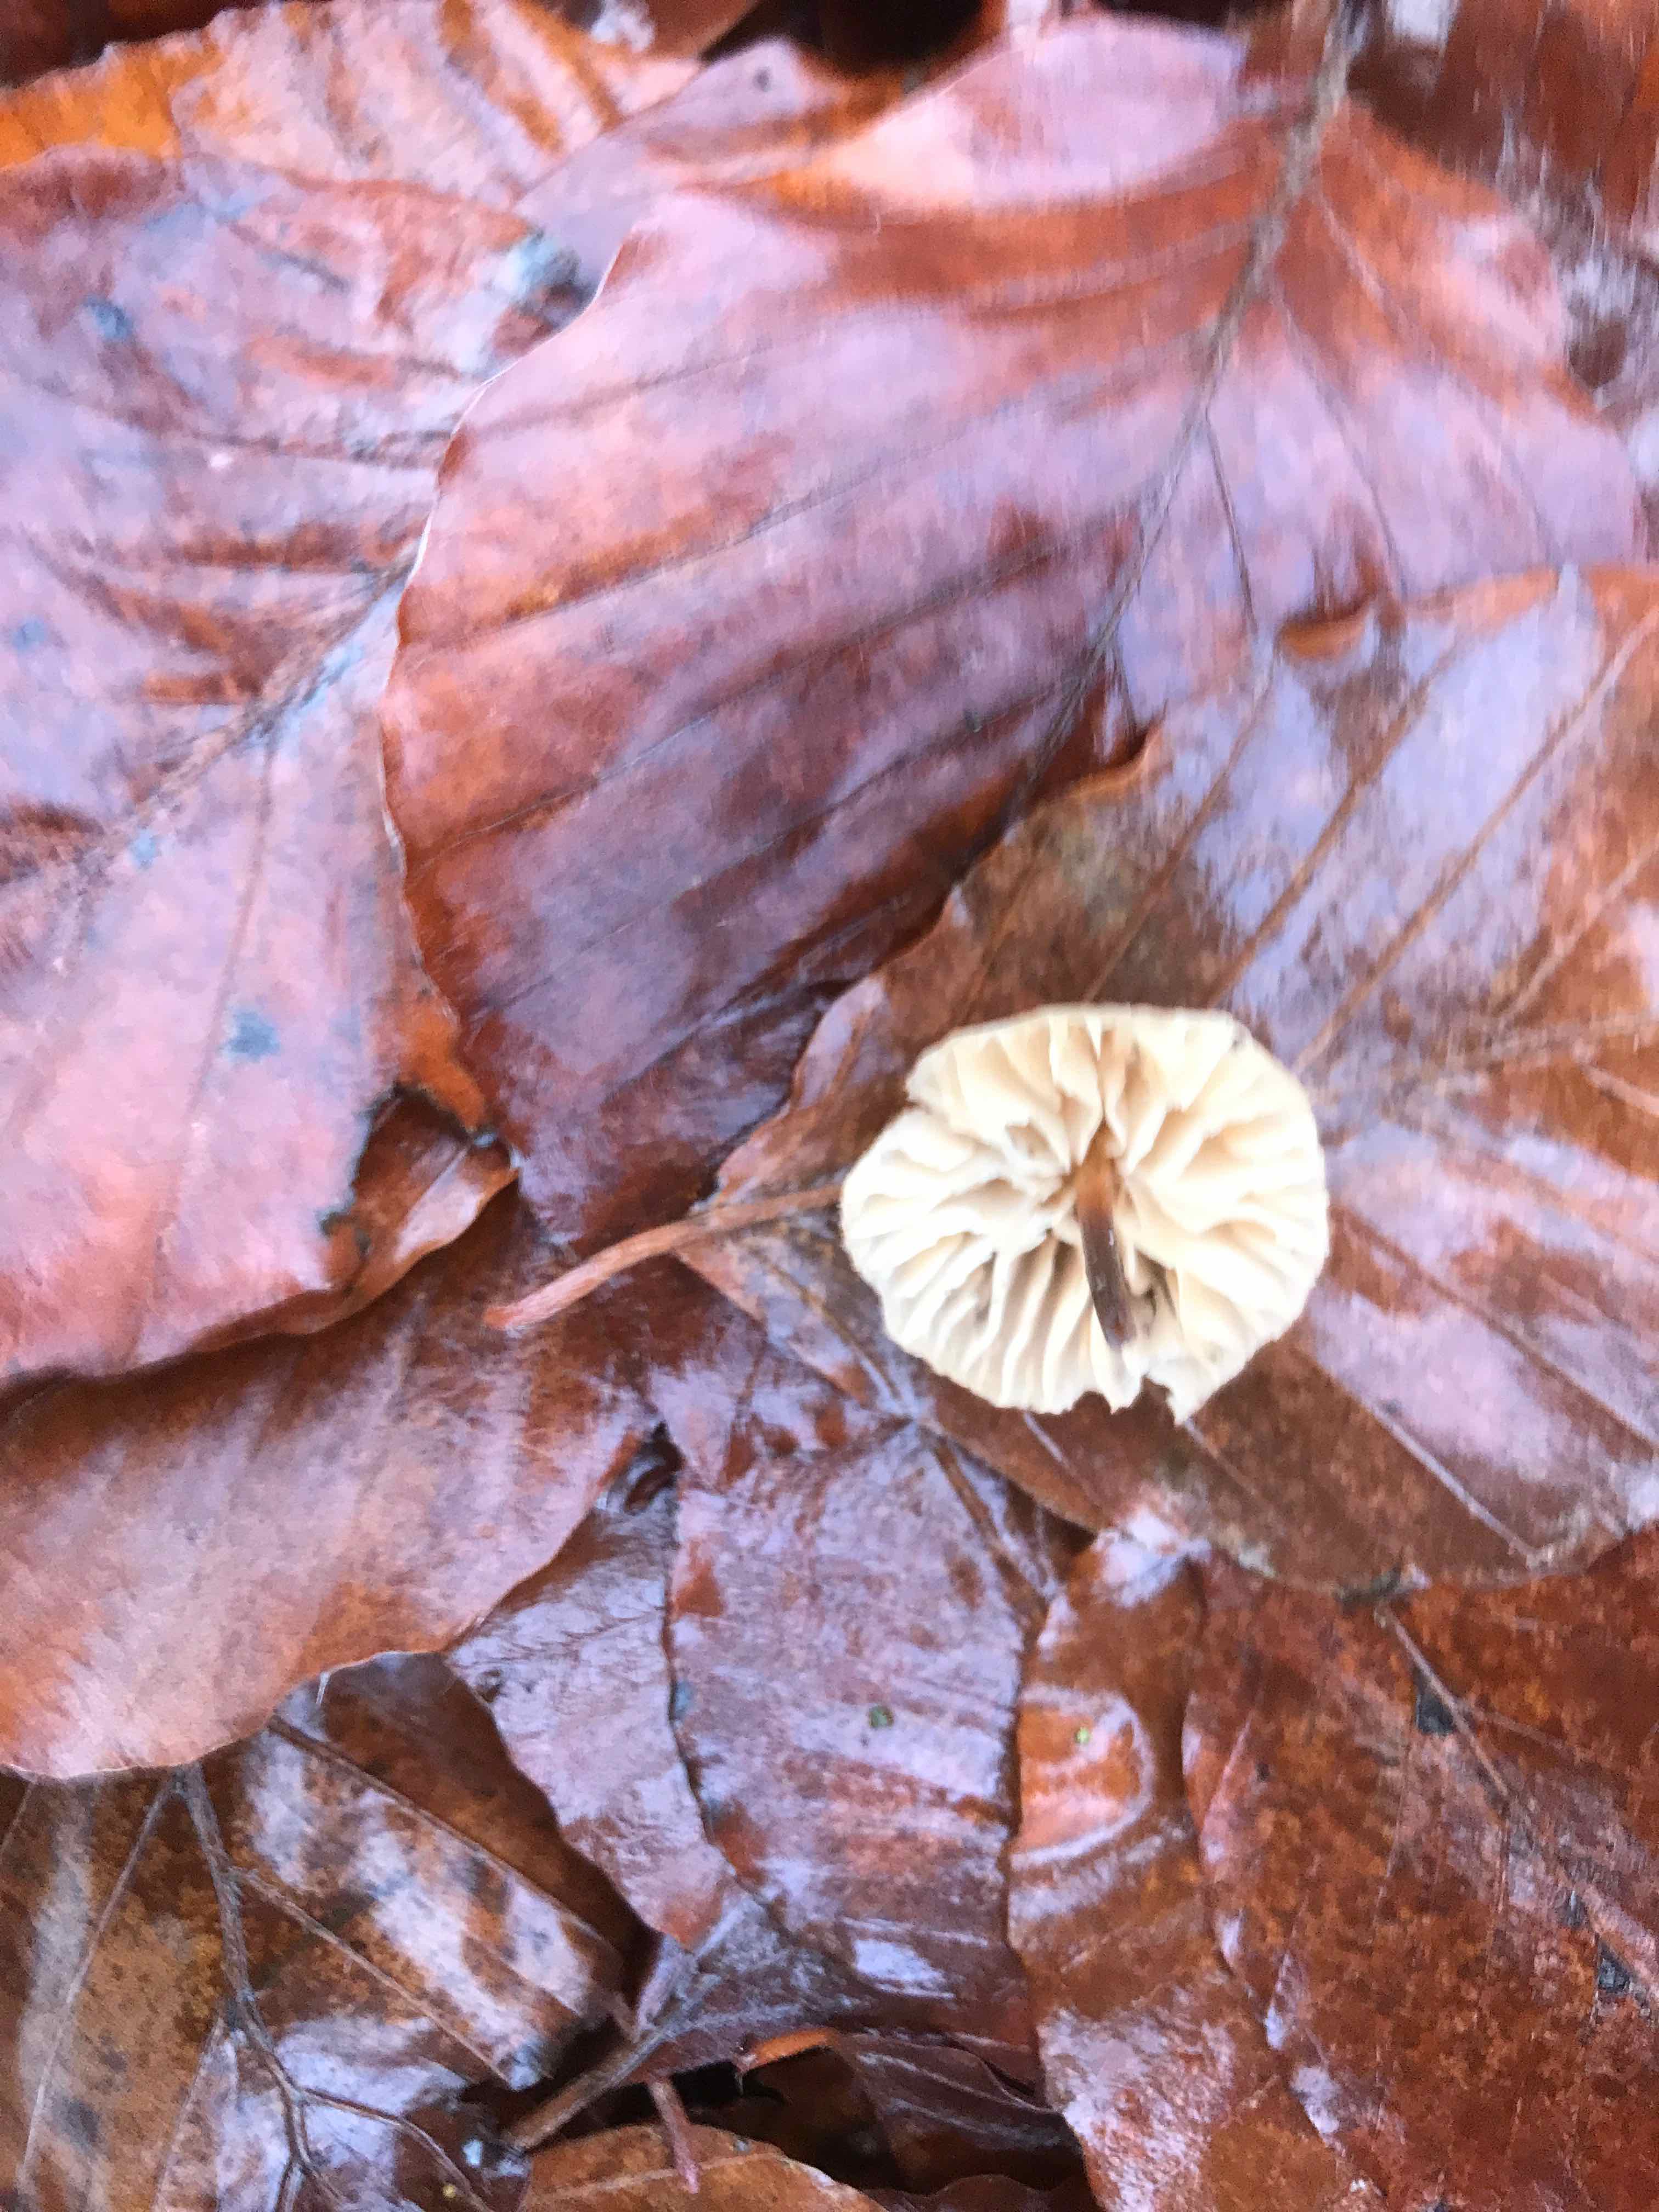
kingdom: Fungi
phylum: Basidiomycota
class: Agaricomycetes
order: Agaricales
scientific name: Agaricales
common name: champignonordenen
